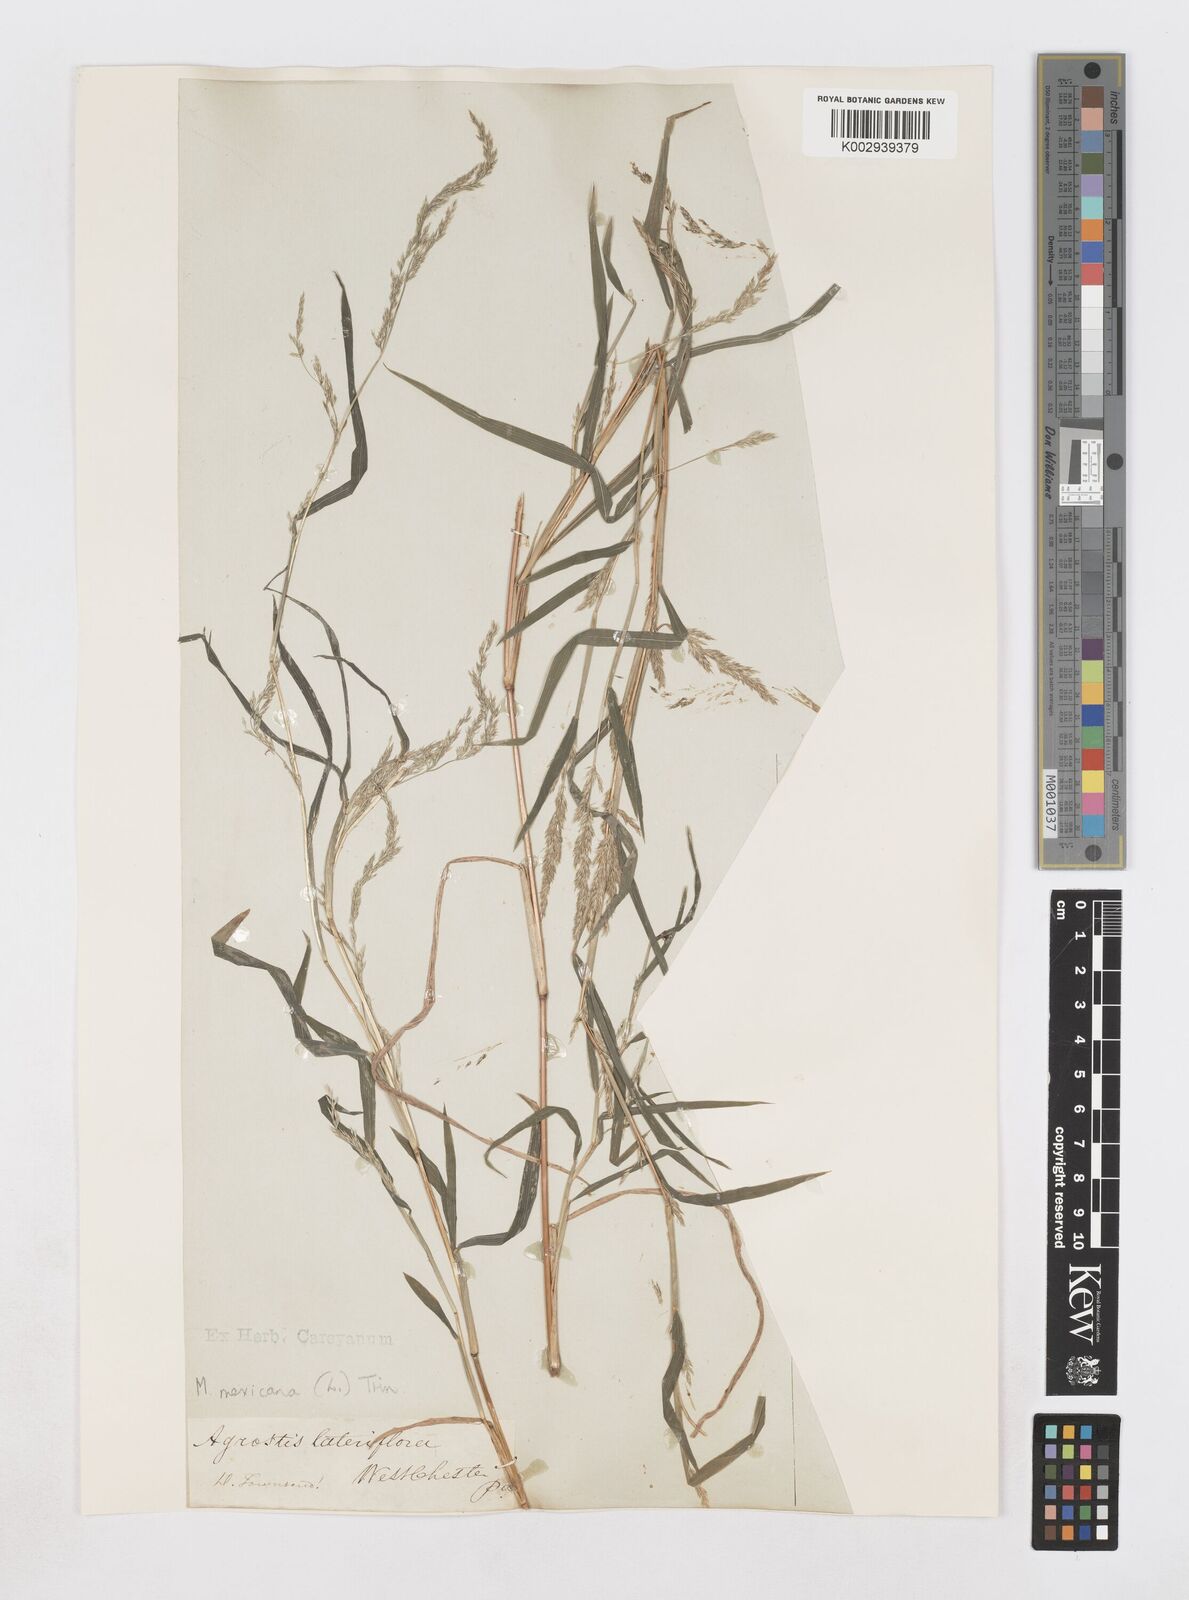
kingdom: Plantae
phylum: Tracheophyta
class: Liliopsida
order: Poales
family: Poaceae
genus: Muhlenbergia
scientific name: Muhlenbergia mexicana
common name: Mexican muhly
